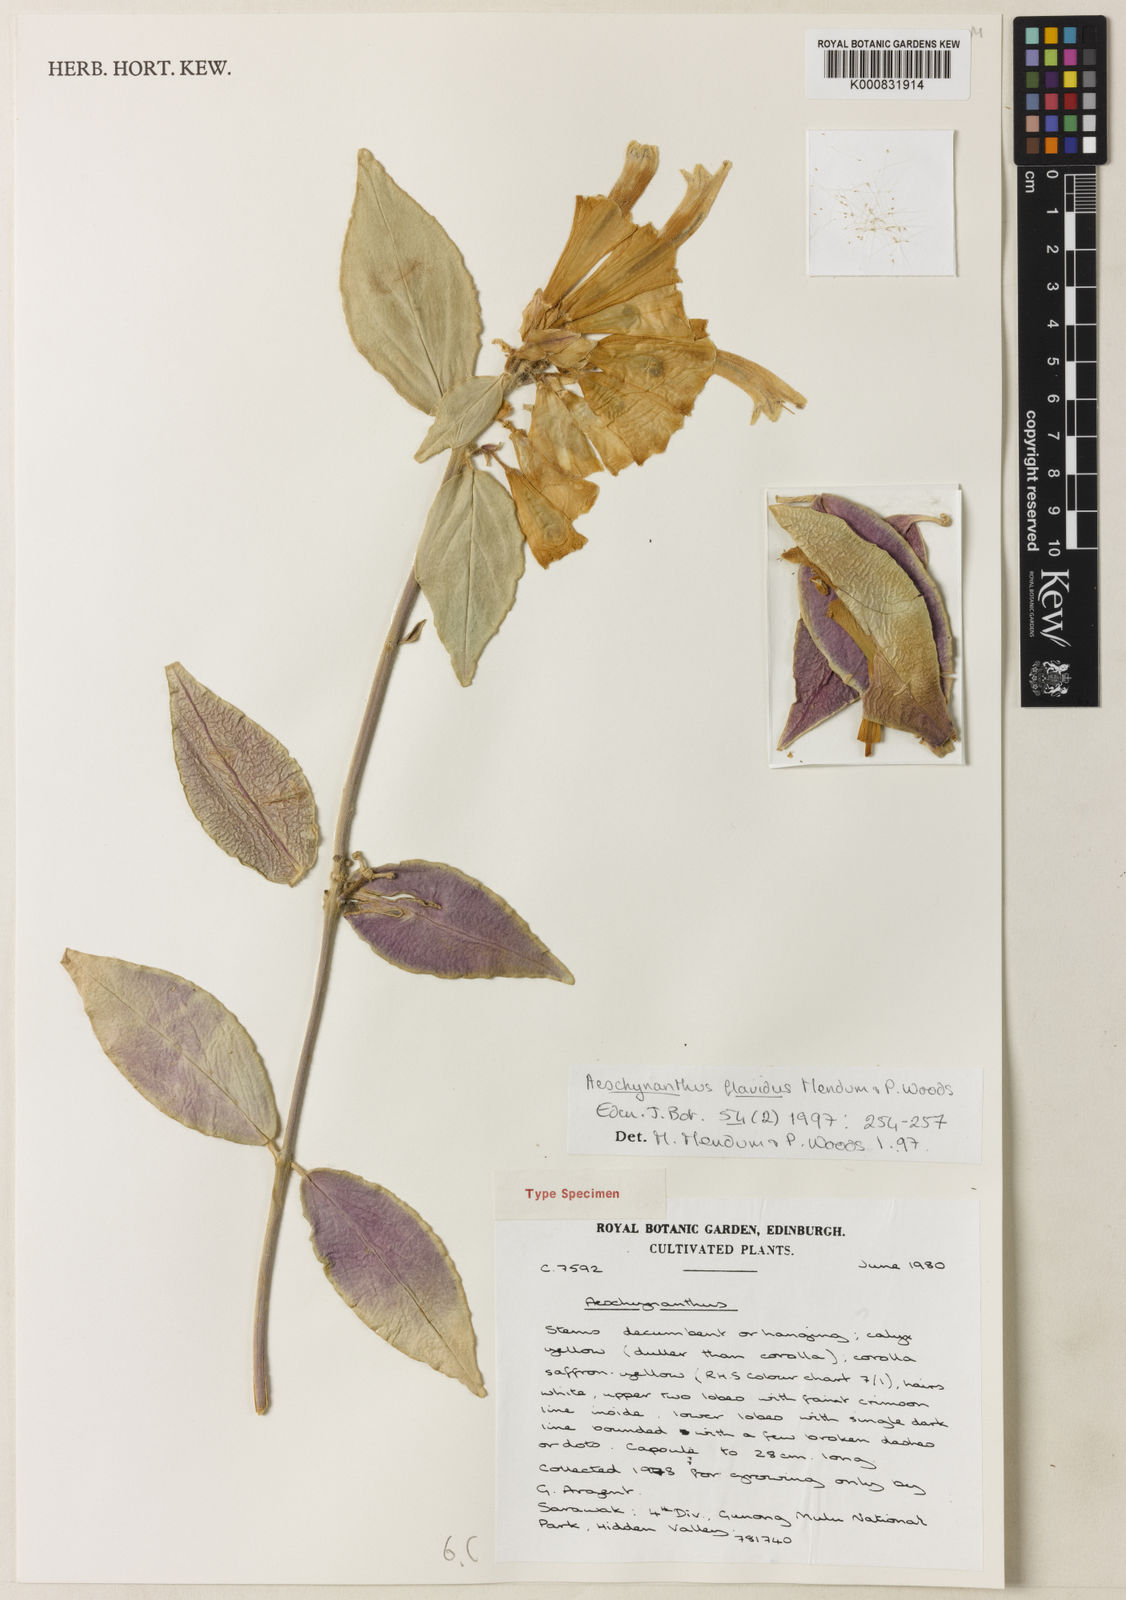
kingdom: Plantae
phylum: Tracheophyta
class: Magnoliopsida
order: Lamiales
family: Gesneriaceae
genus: Aeschynanthus
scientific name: Aeschynanthus flavidus
